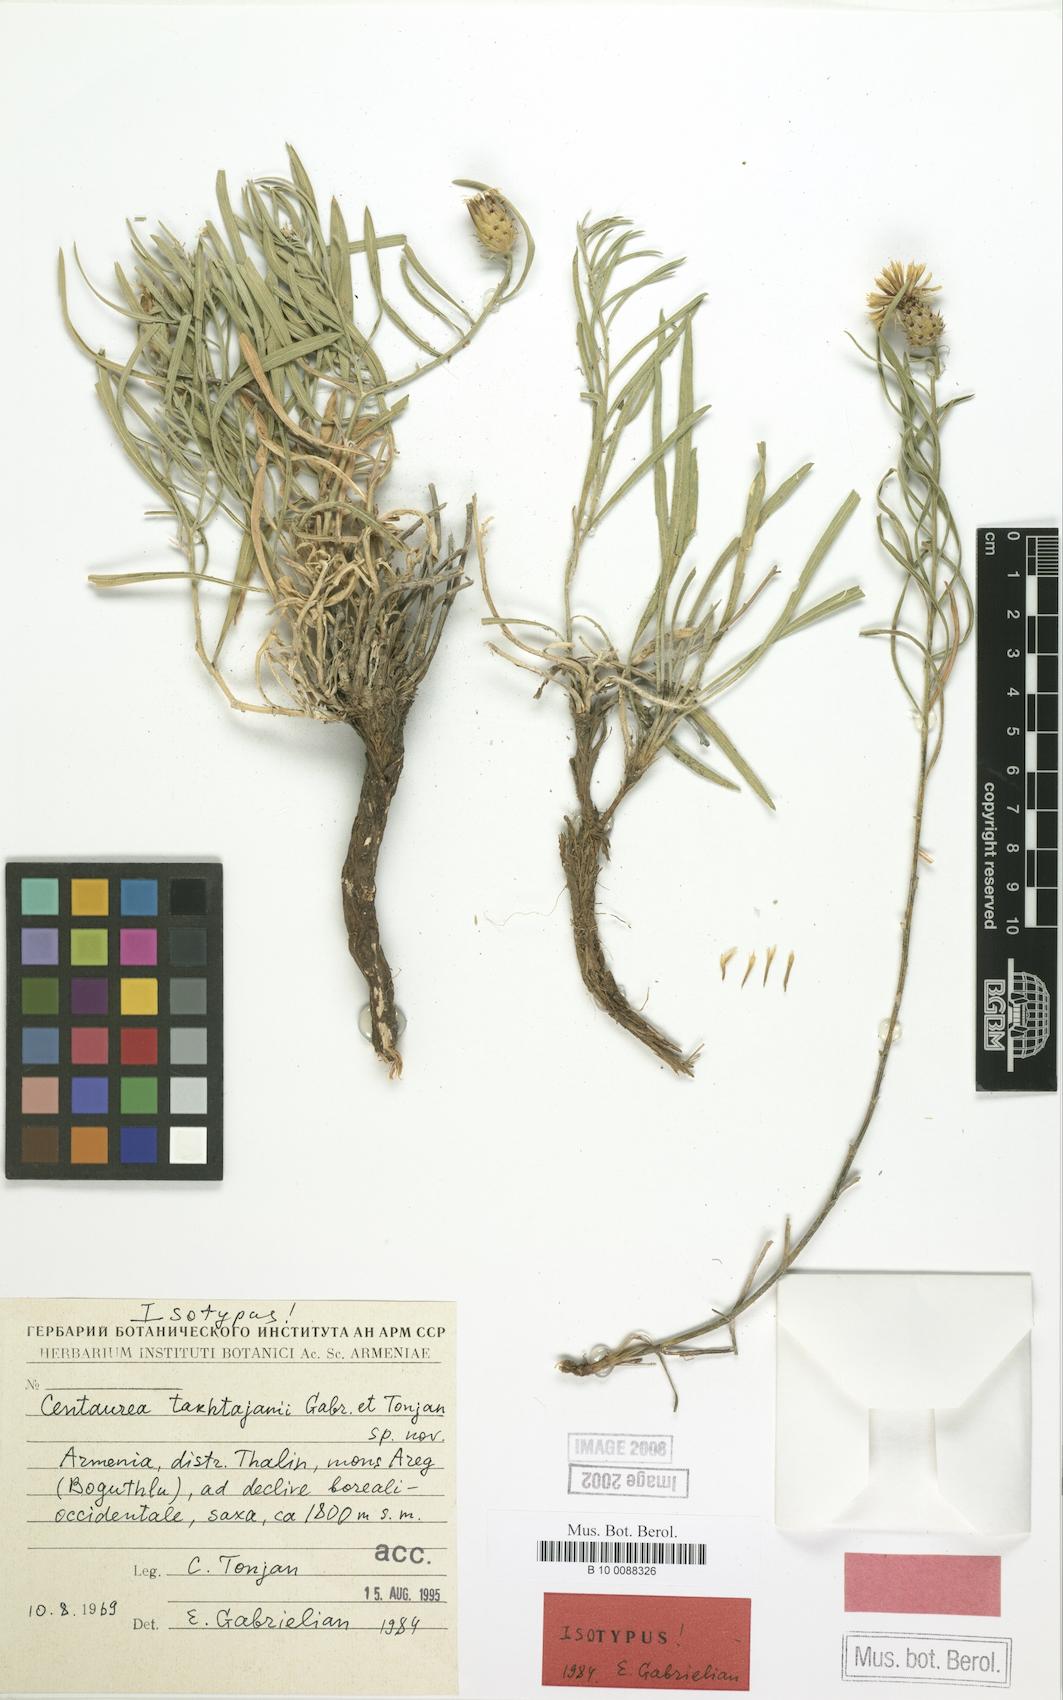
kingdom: Plantae
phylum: Tracheophyta
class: Magnoliopsida
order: Asterales
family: Asteraceae
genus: Centaurea
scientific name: Centaurea takhtajanii
